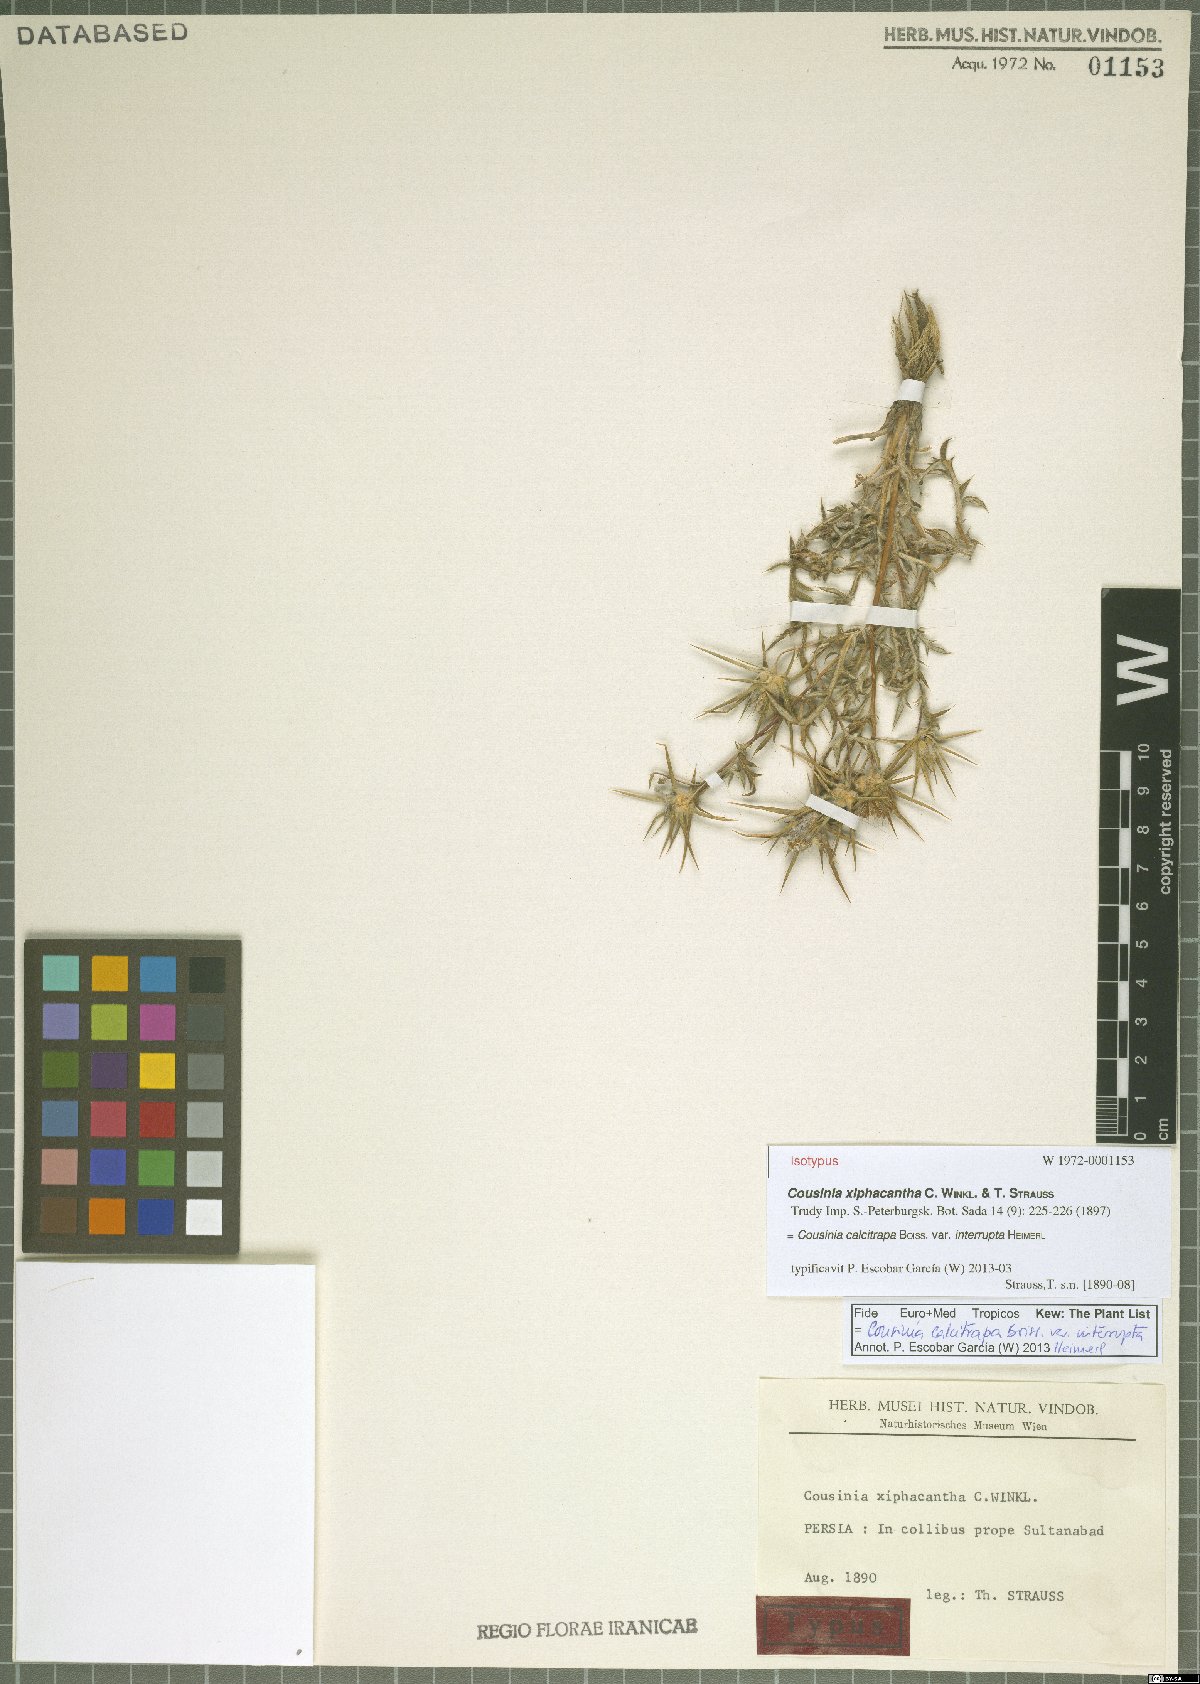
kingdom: Plantae
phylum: Tracheophyta
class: Magnoliopsida
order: Asterales
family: Asteraceae
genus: Cousinia
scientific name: Cousinia calcitrapa
